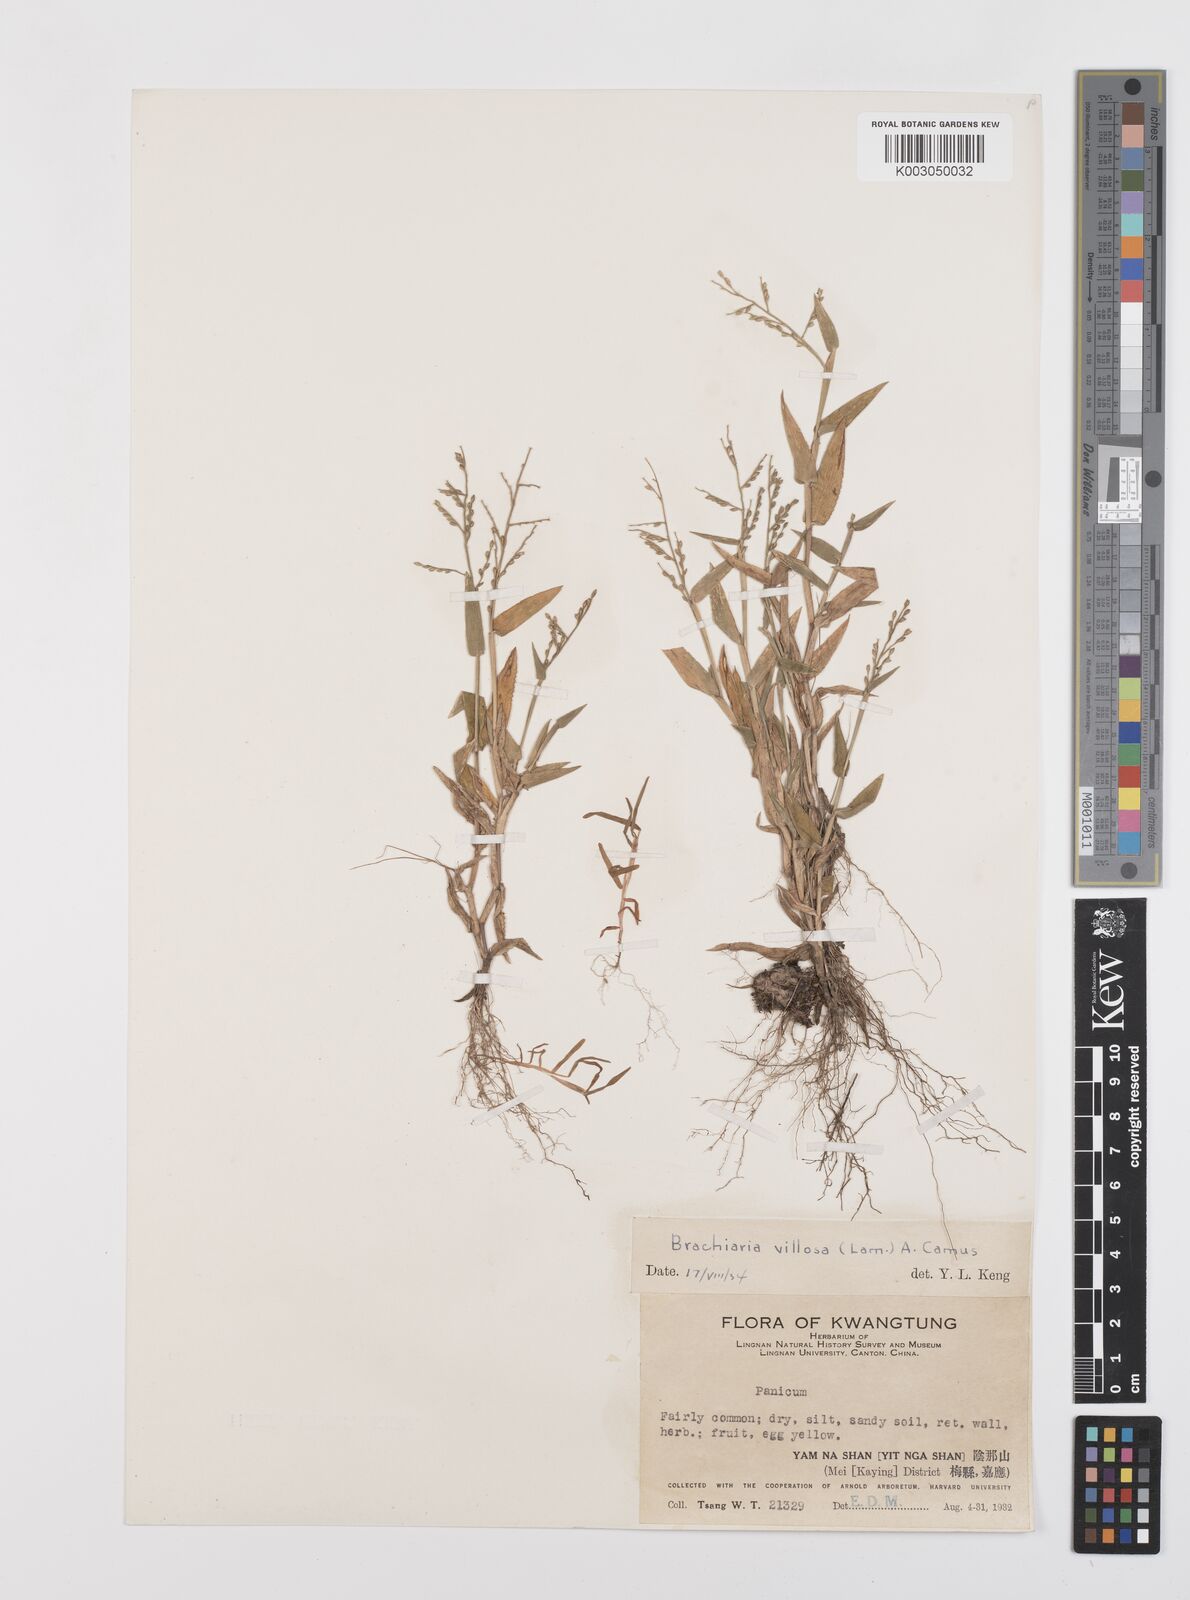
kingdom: Plantae
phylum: Tracheophyta
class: Liliopsida
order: Poales
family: Poaceae
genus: Urochloa
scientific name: Urochloa villosa
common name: Hairy signalgrass
